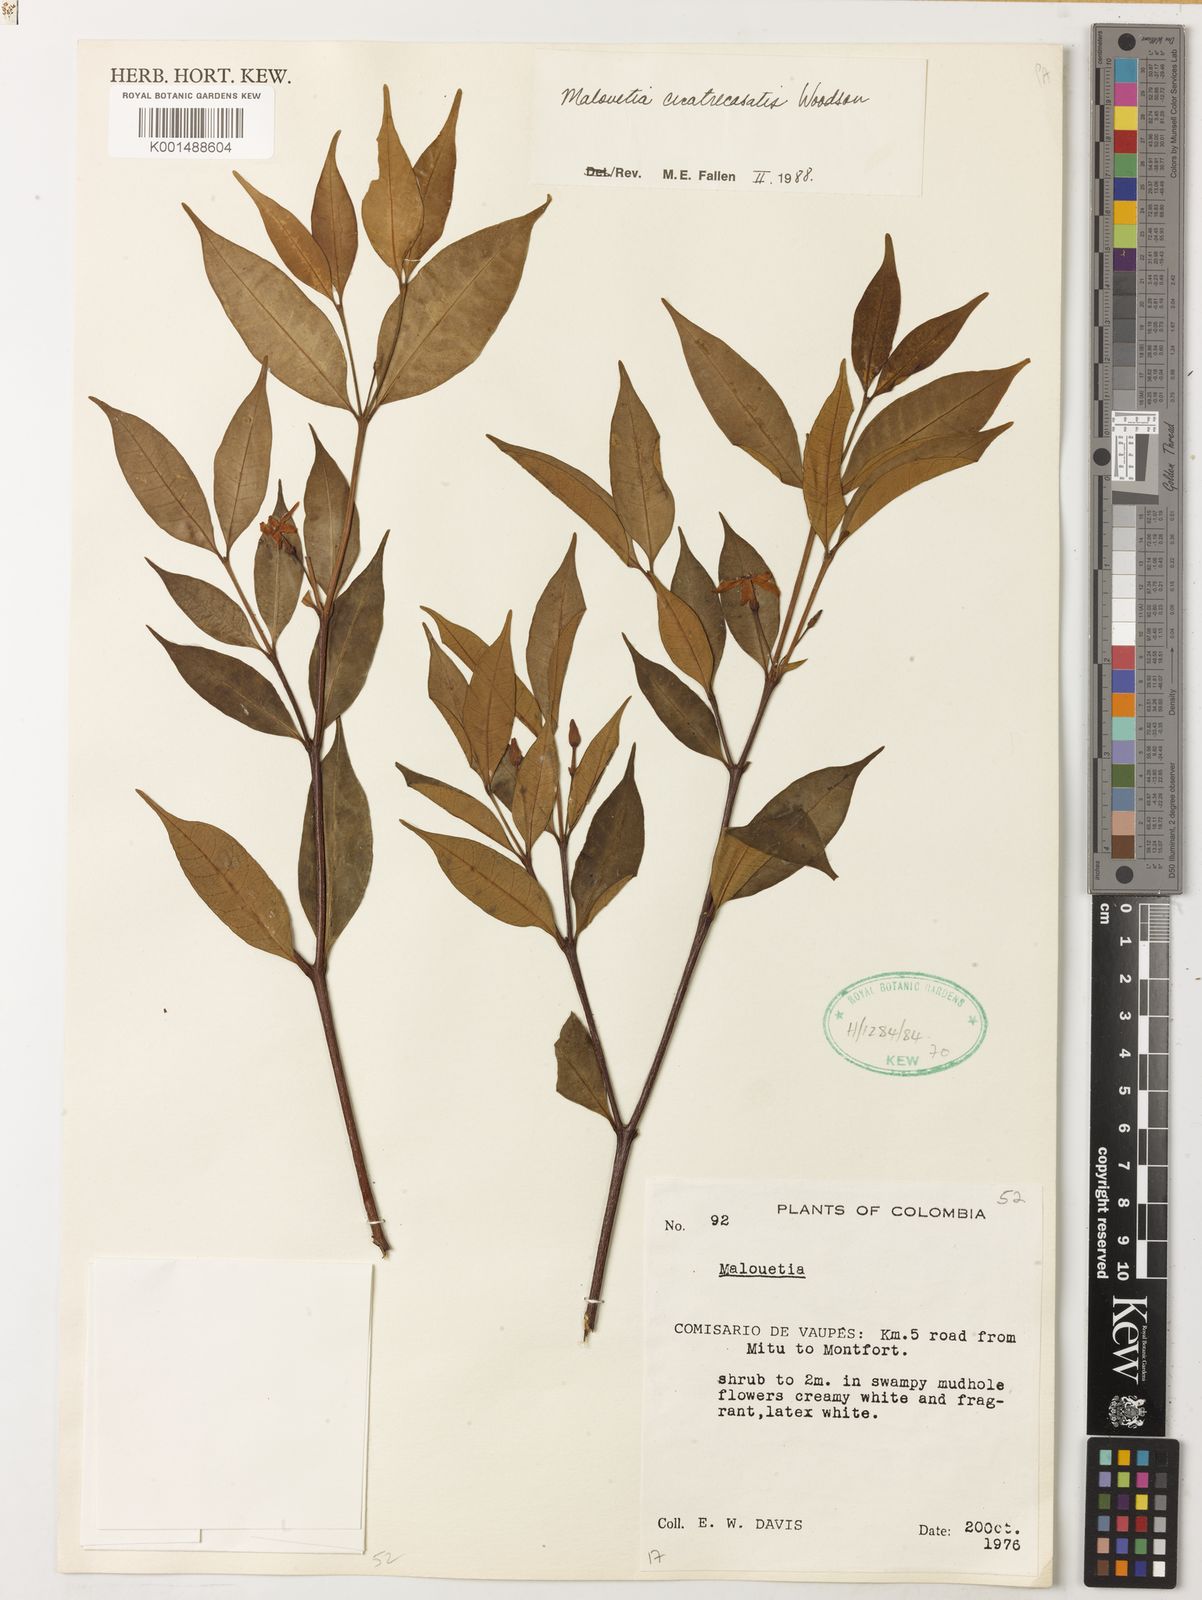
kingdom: Plantae
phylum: Tracheophyta
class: Magnoliopsida
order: Gentianales
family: Apocynaceae
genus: Malouetia
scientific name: Malouetia cuatrecasatis
